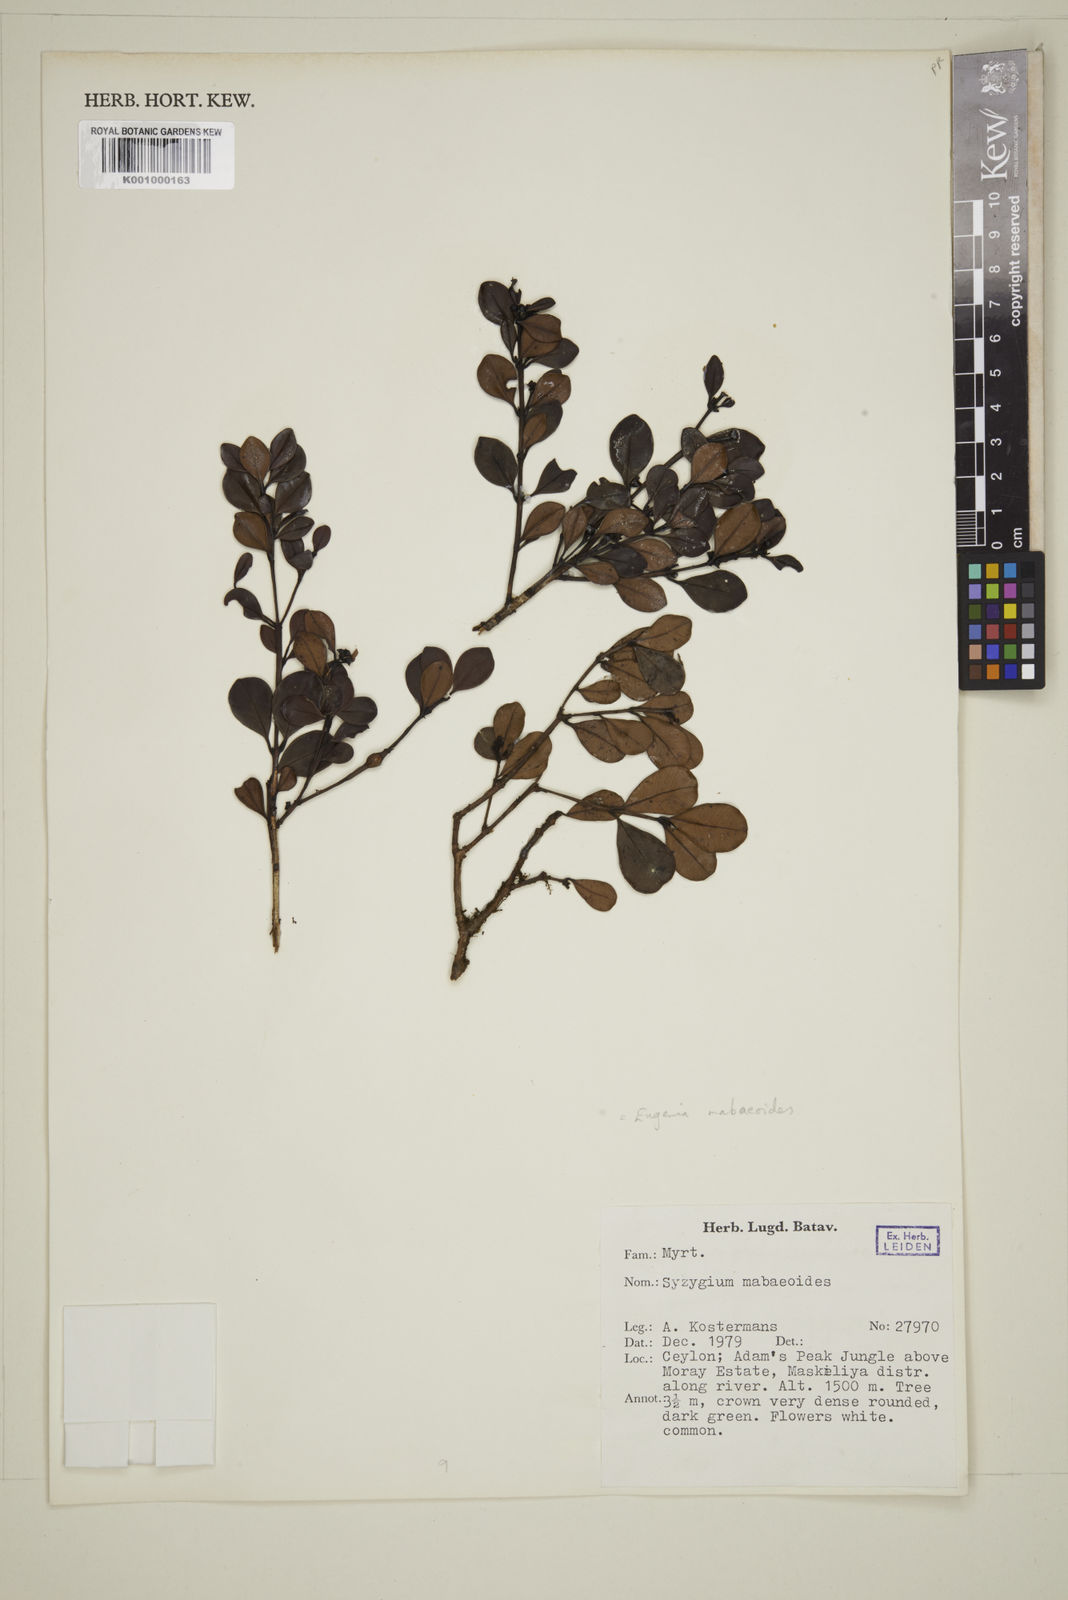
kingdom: Plantae
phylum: Tracheophyta
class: Magnoliopsida
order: Myrtales
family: Myrtaceae
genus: Syzygium
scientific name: Syzygium
